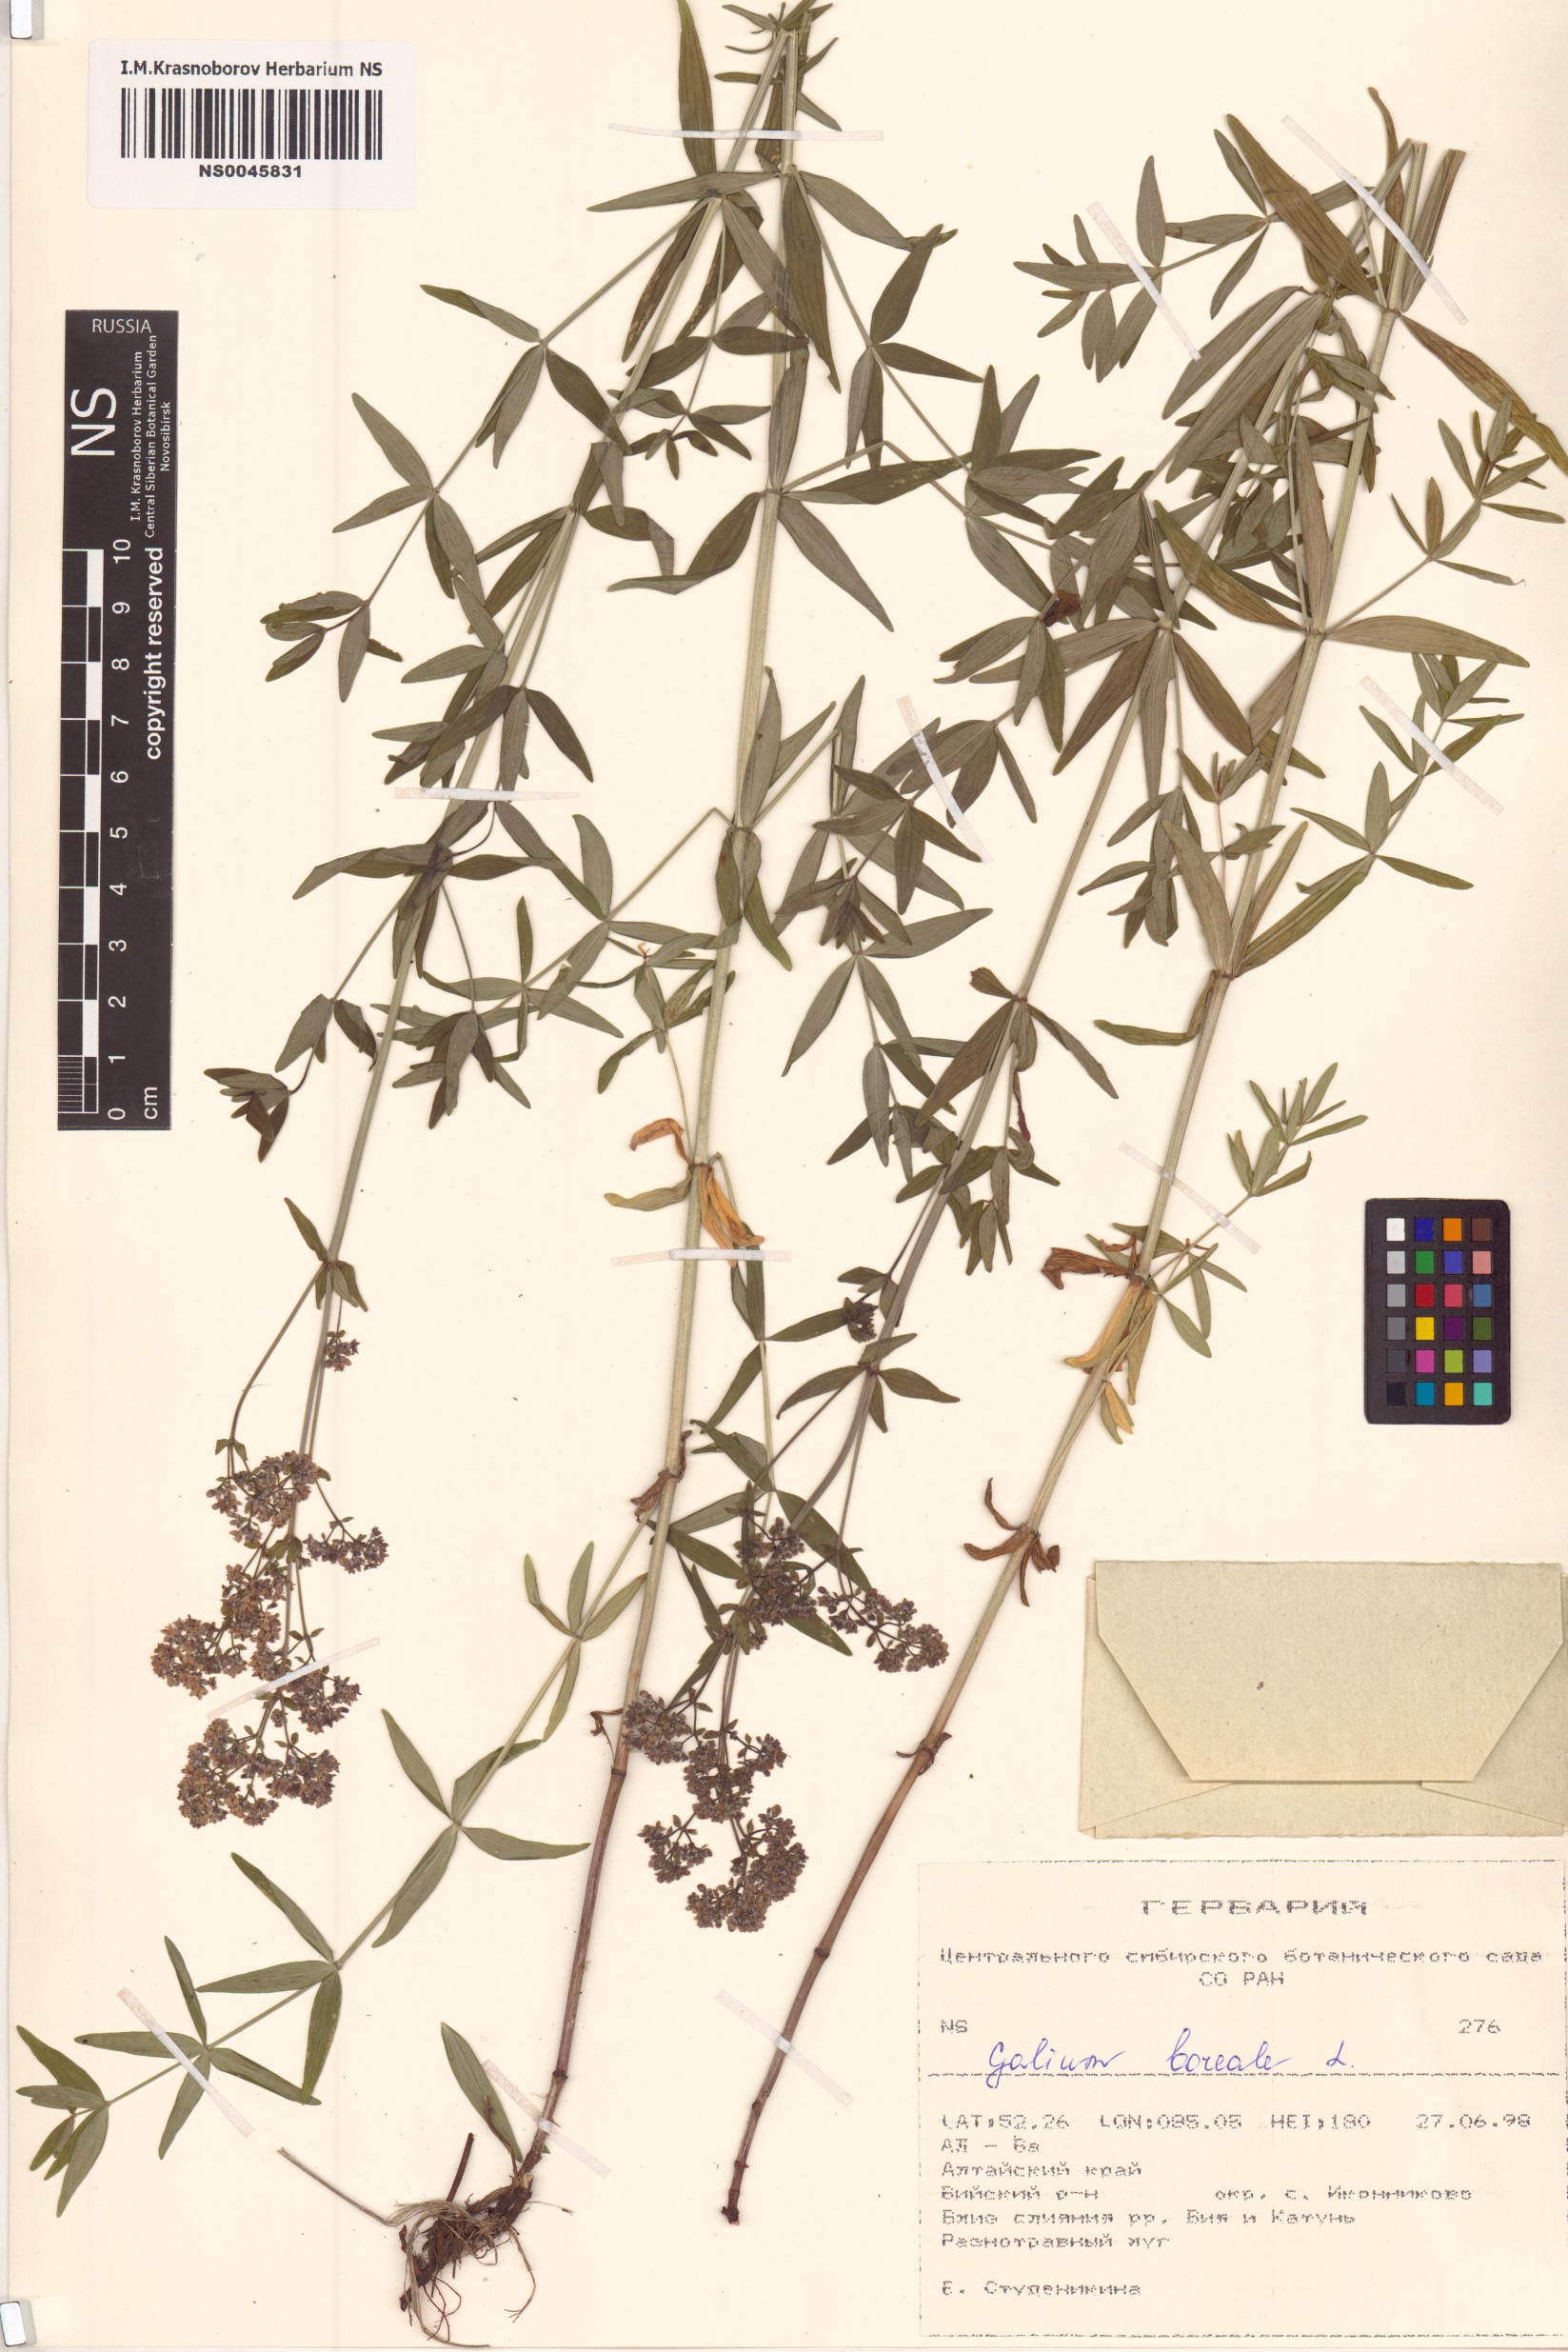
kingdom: Plantae
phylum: Tracheophyta
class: Magnoliopsida
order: Gentianales
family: Rubiaceae
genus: Galium
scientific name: Galium boreale
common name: Northern bedstraw
